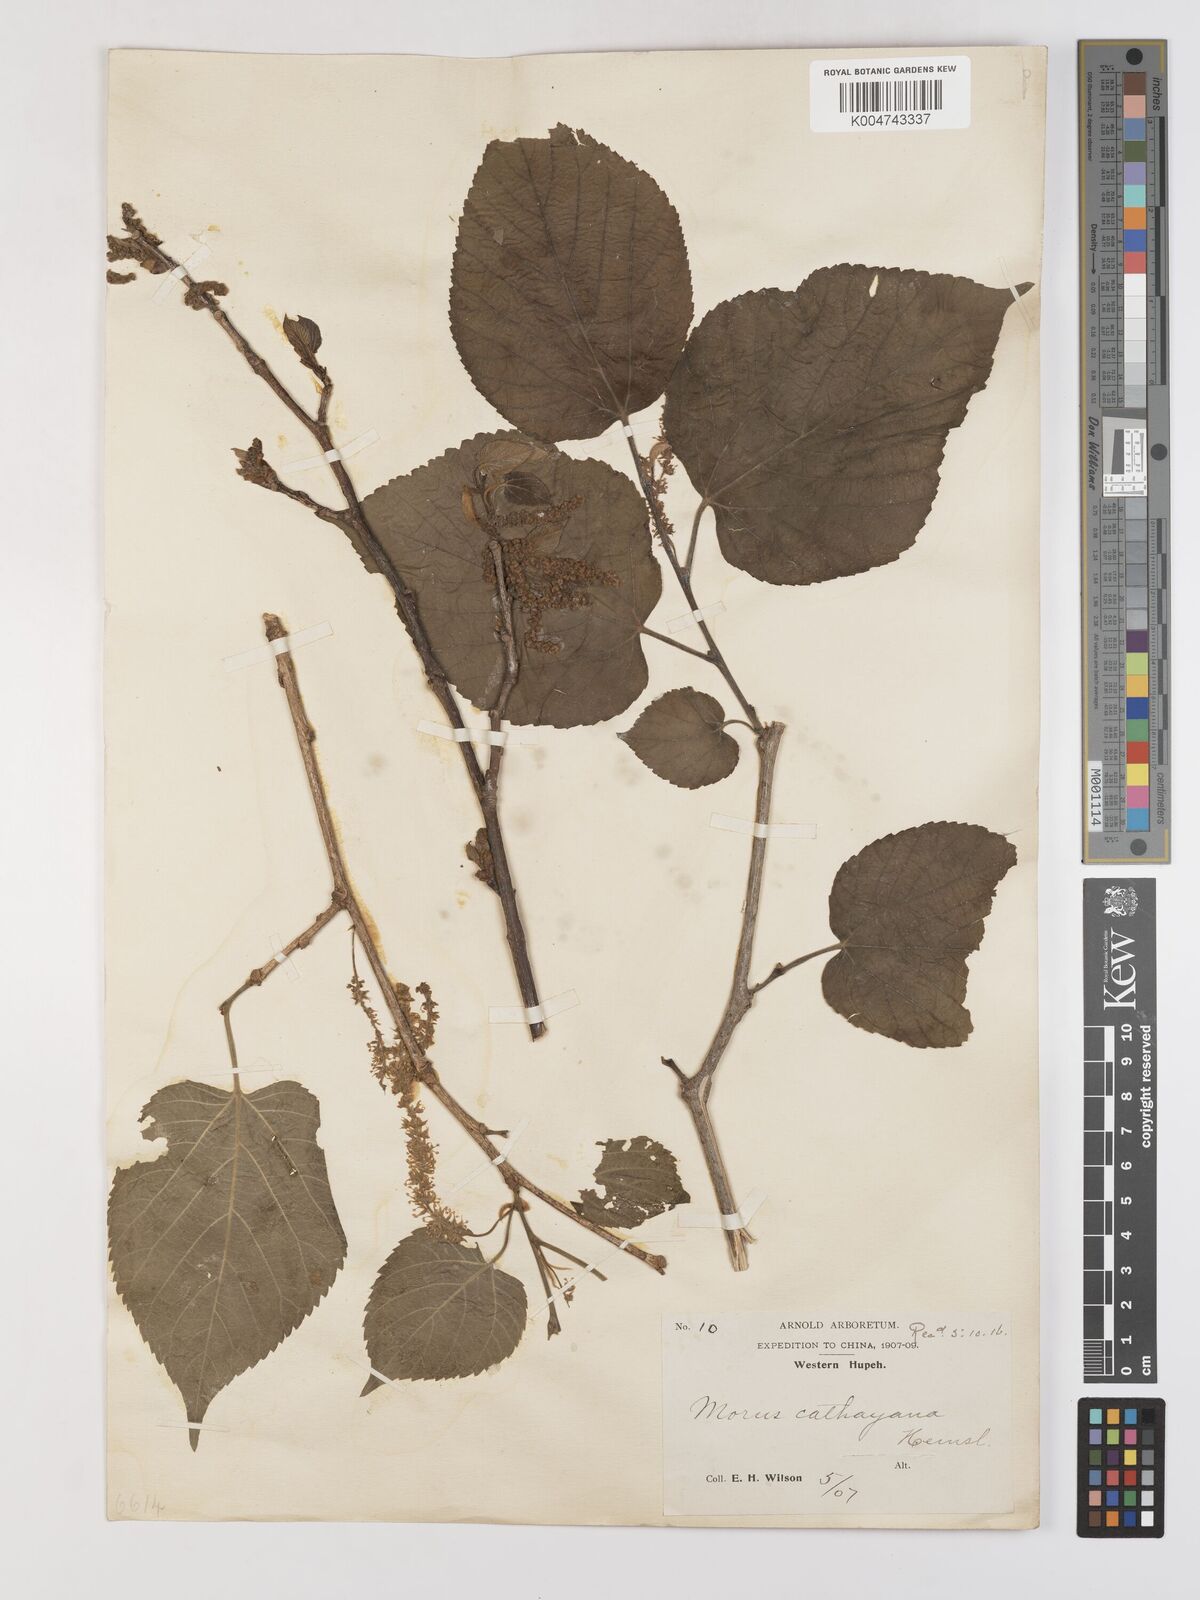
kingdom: Plantae
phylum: Tracheophyta
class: Magnoliopsida
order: Rosales
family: Moraceae
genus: Morus
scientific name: Morus cathayana
